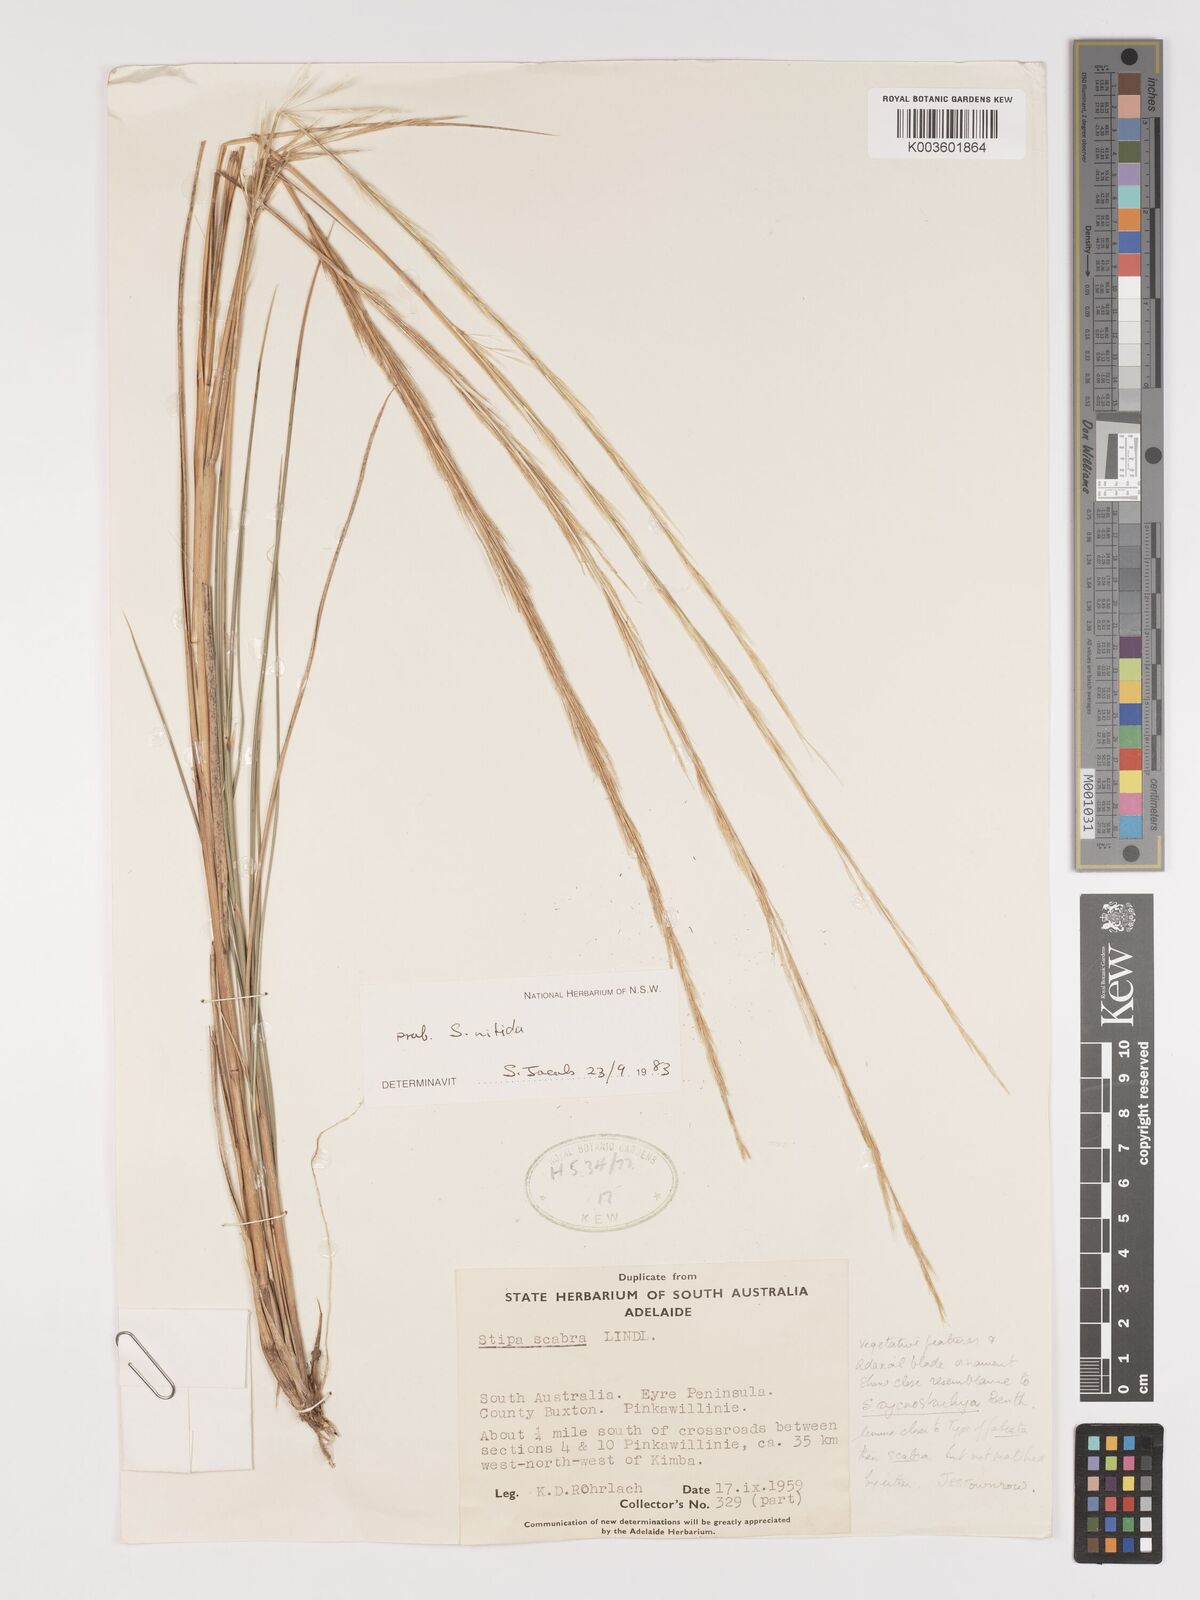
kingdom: Plantae
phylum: Tracheophyta
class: Liliopsida
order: Poales
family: Poaceae
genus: Austrostipa
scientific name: Austrostipa nitida
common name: Balcarra grass
